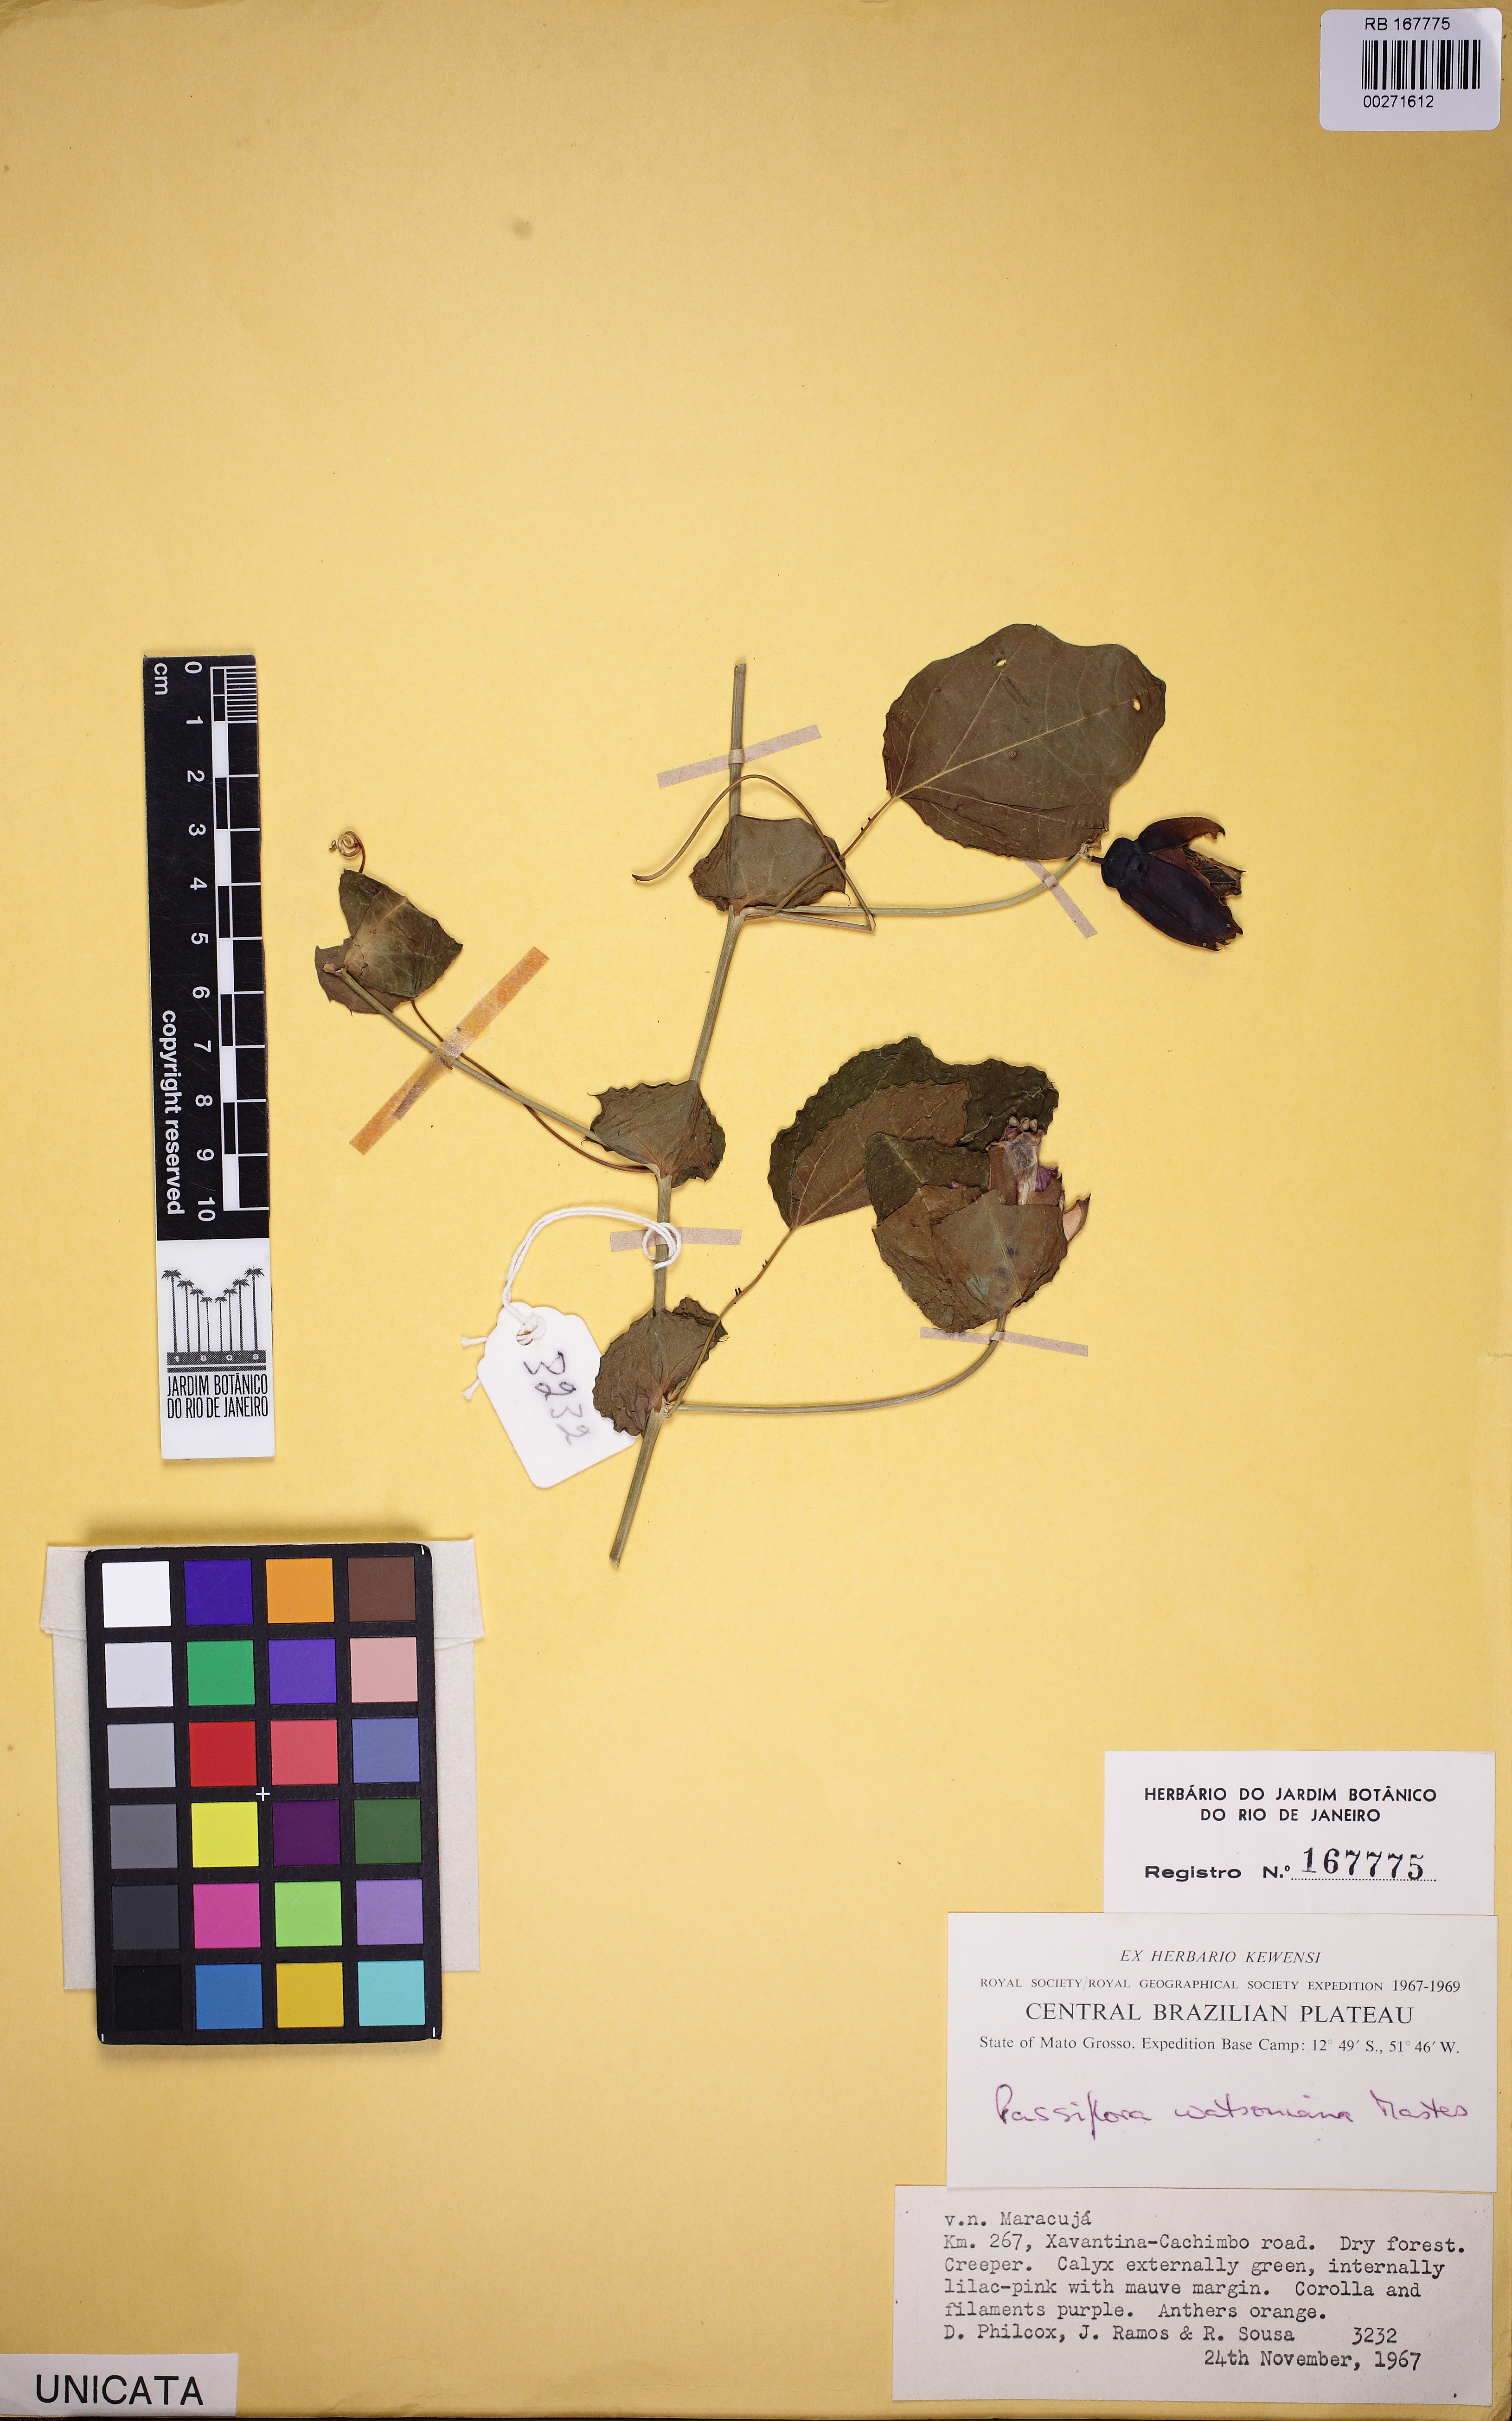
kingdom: Plantae
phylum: Tracheophyta
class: Magnoliopsida
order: Malpighiales
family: Passifloraceae
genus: Passiflora
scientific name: Passiflora castellanosii
